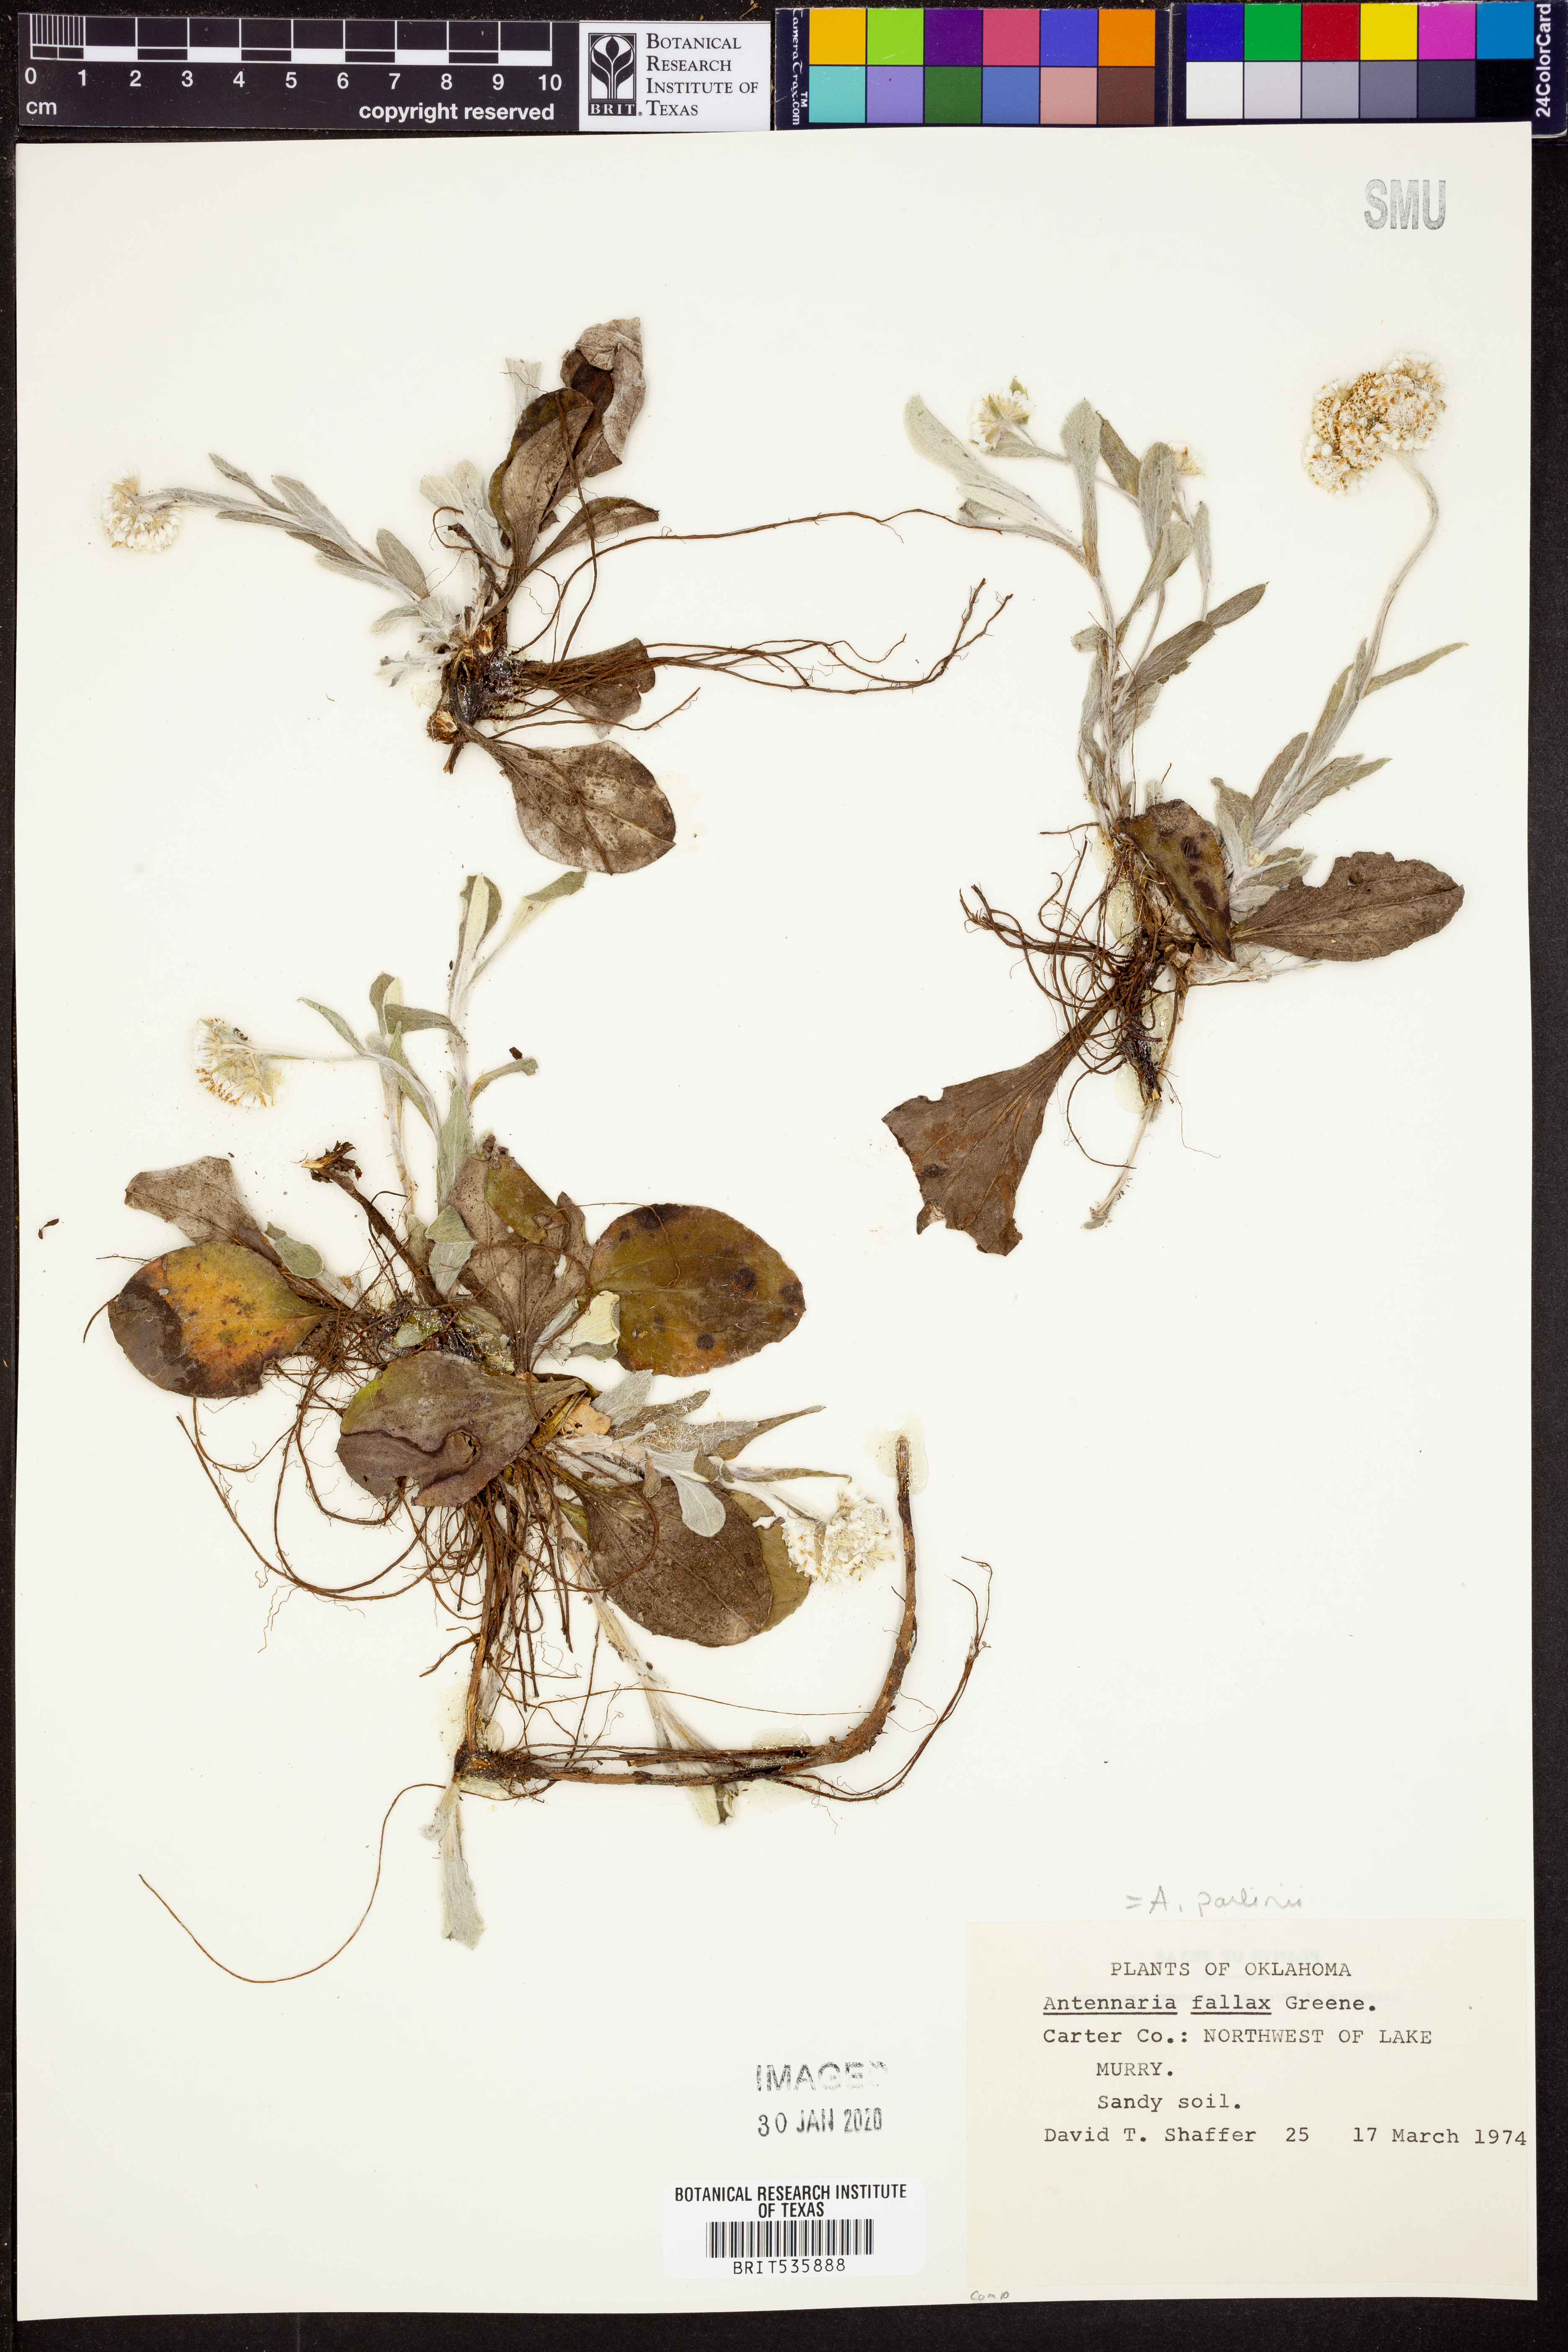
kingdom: Plantae
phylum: Tracheophyta
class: Magnoliopsida
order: Asterales
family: Asteraceae
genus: Antennaria
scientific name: Antennaria parlinii
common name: Parlin's pussytoes
